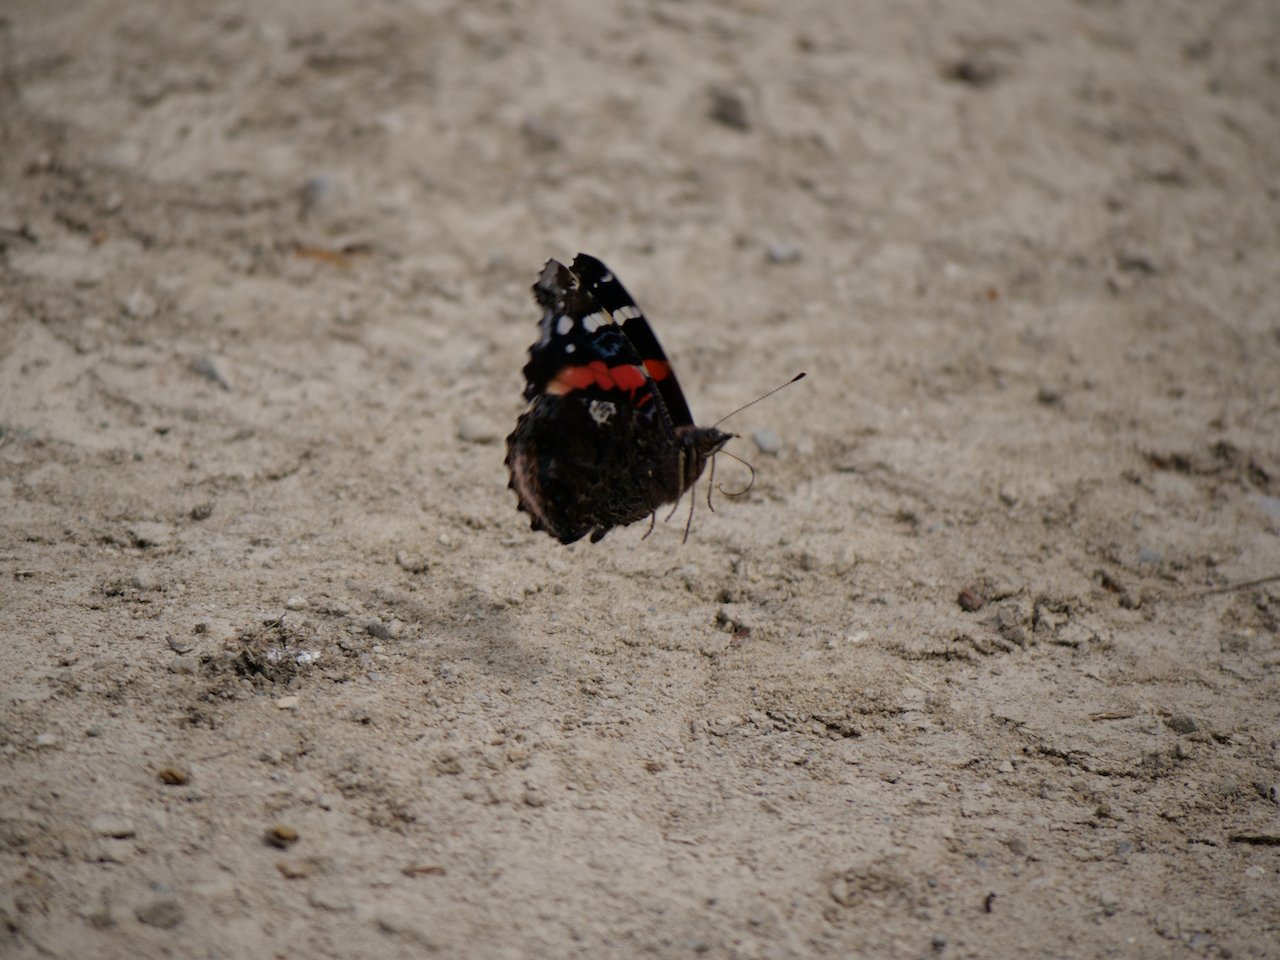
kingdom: Animalia
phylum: Arthropoda
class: Insecta
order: Lepidoptera
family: Nymphalidae
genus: Vanessa
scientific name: Vanessa atalanta
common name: Red Admiral
